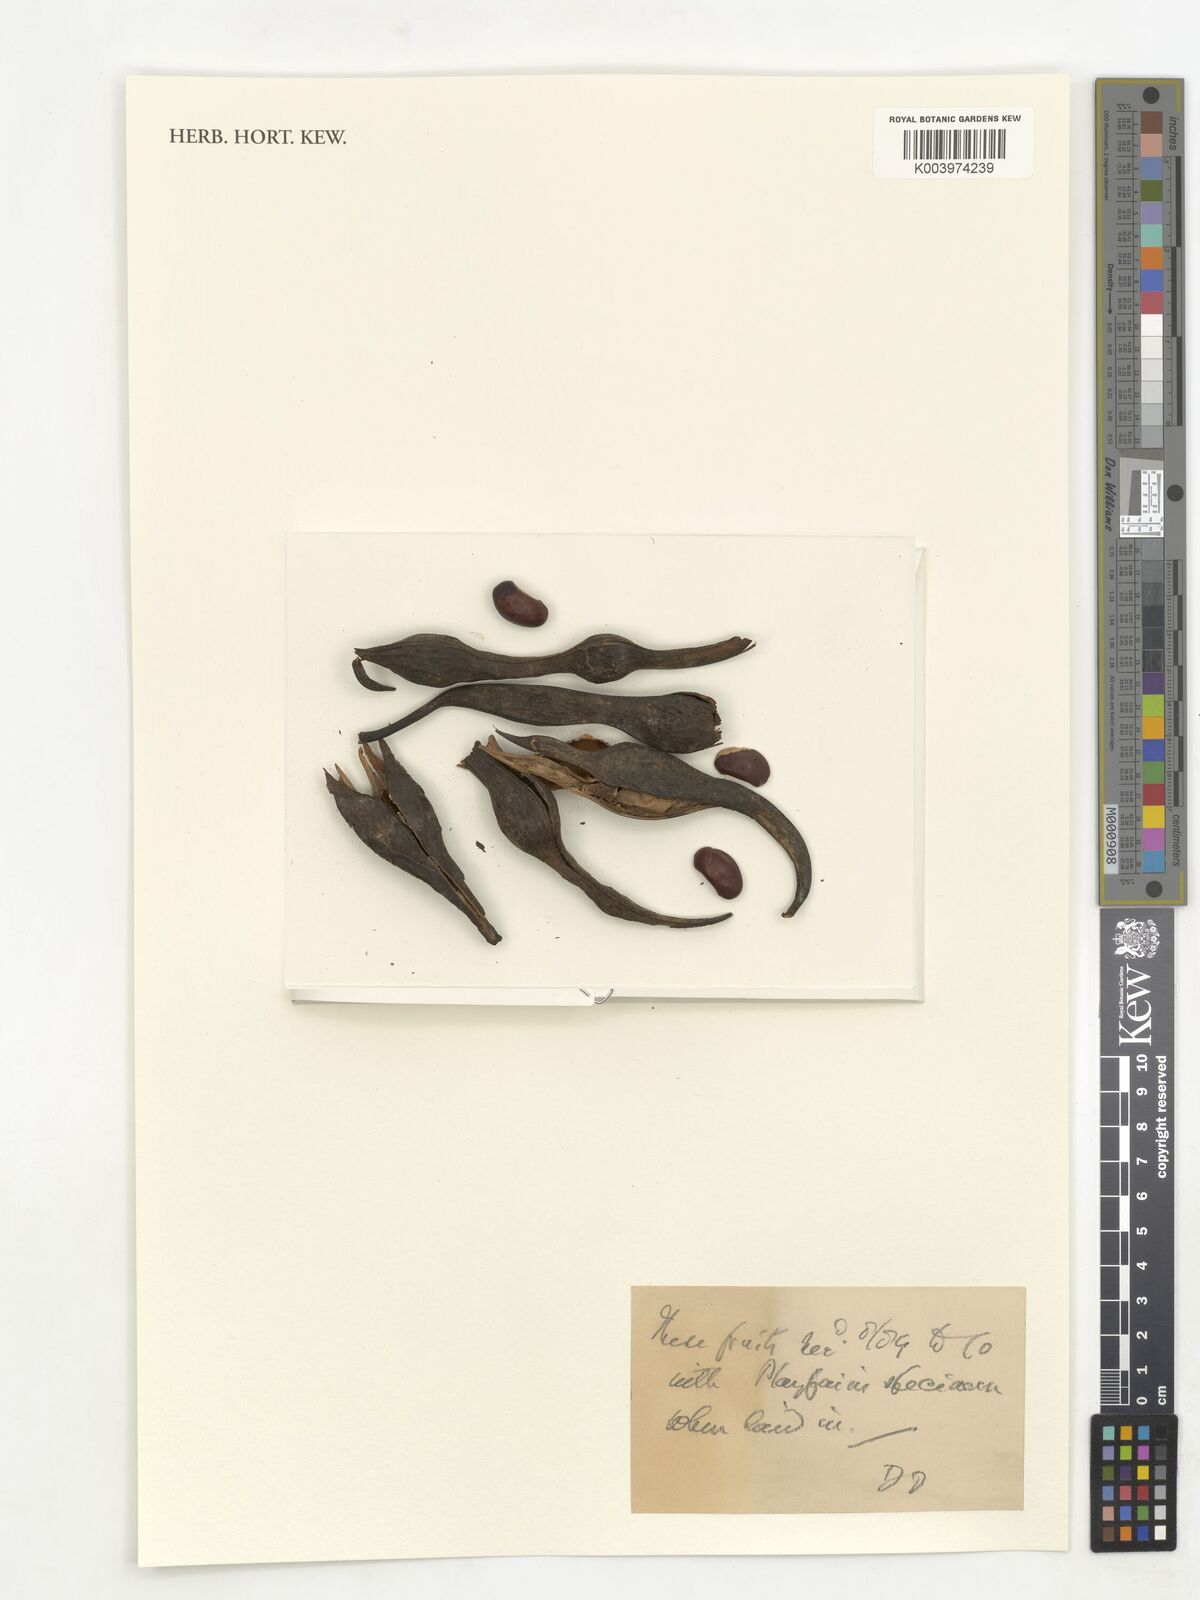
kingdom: Plantae
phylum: Tracheophyta
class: Magnoliopsida
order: Fabales
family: Fabaceae
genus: Erythrina
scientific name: Erythrina
